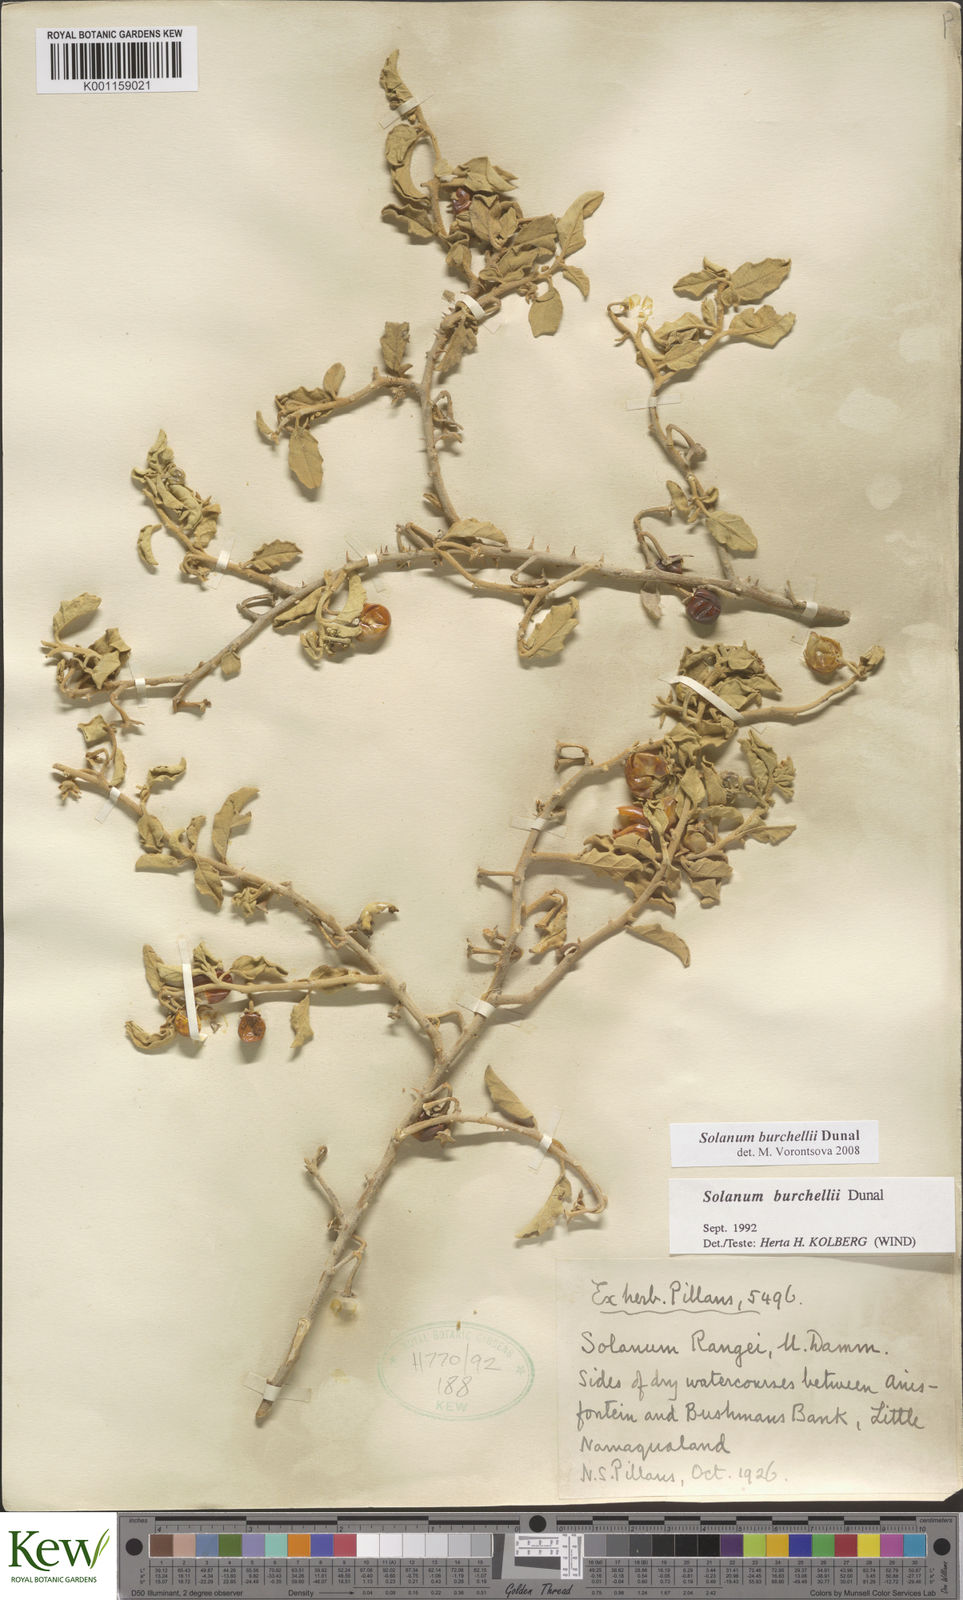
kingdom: Plantae
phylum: Tracheophyta
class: Magnoliopsida
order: Solanales
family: Solanaceae
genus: Solanum
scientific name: Solanum burchellii
